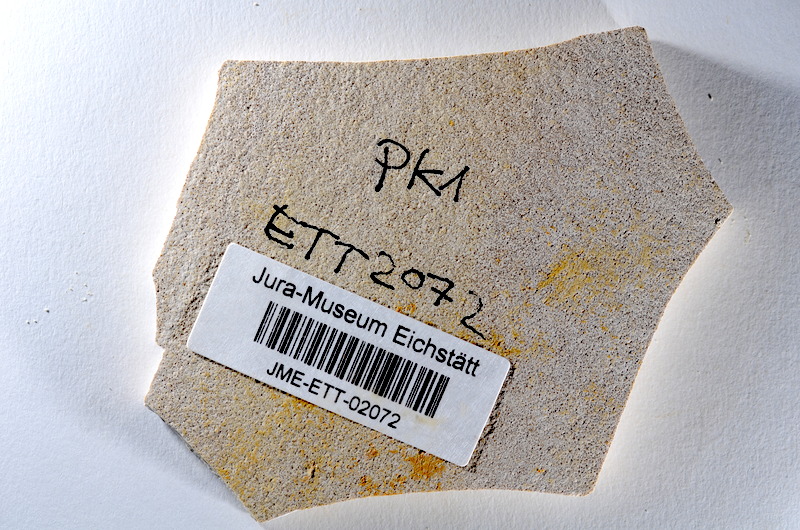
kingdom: Animalia
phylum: Chordata
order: Salmoniformes
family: Orthogonikleithridae
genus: Orthogonikleithrus
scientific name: Orthogonikleithrus hoelli
